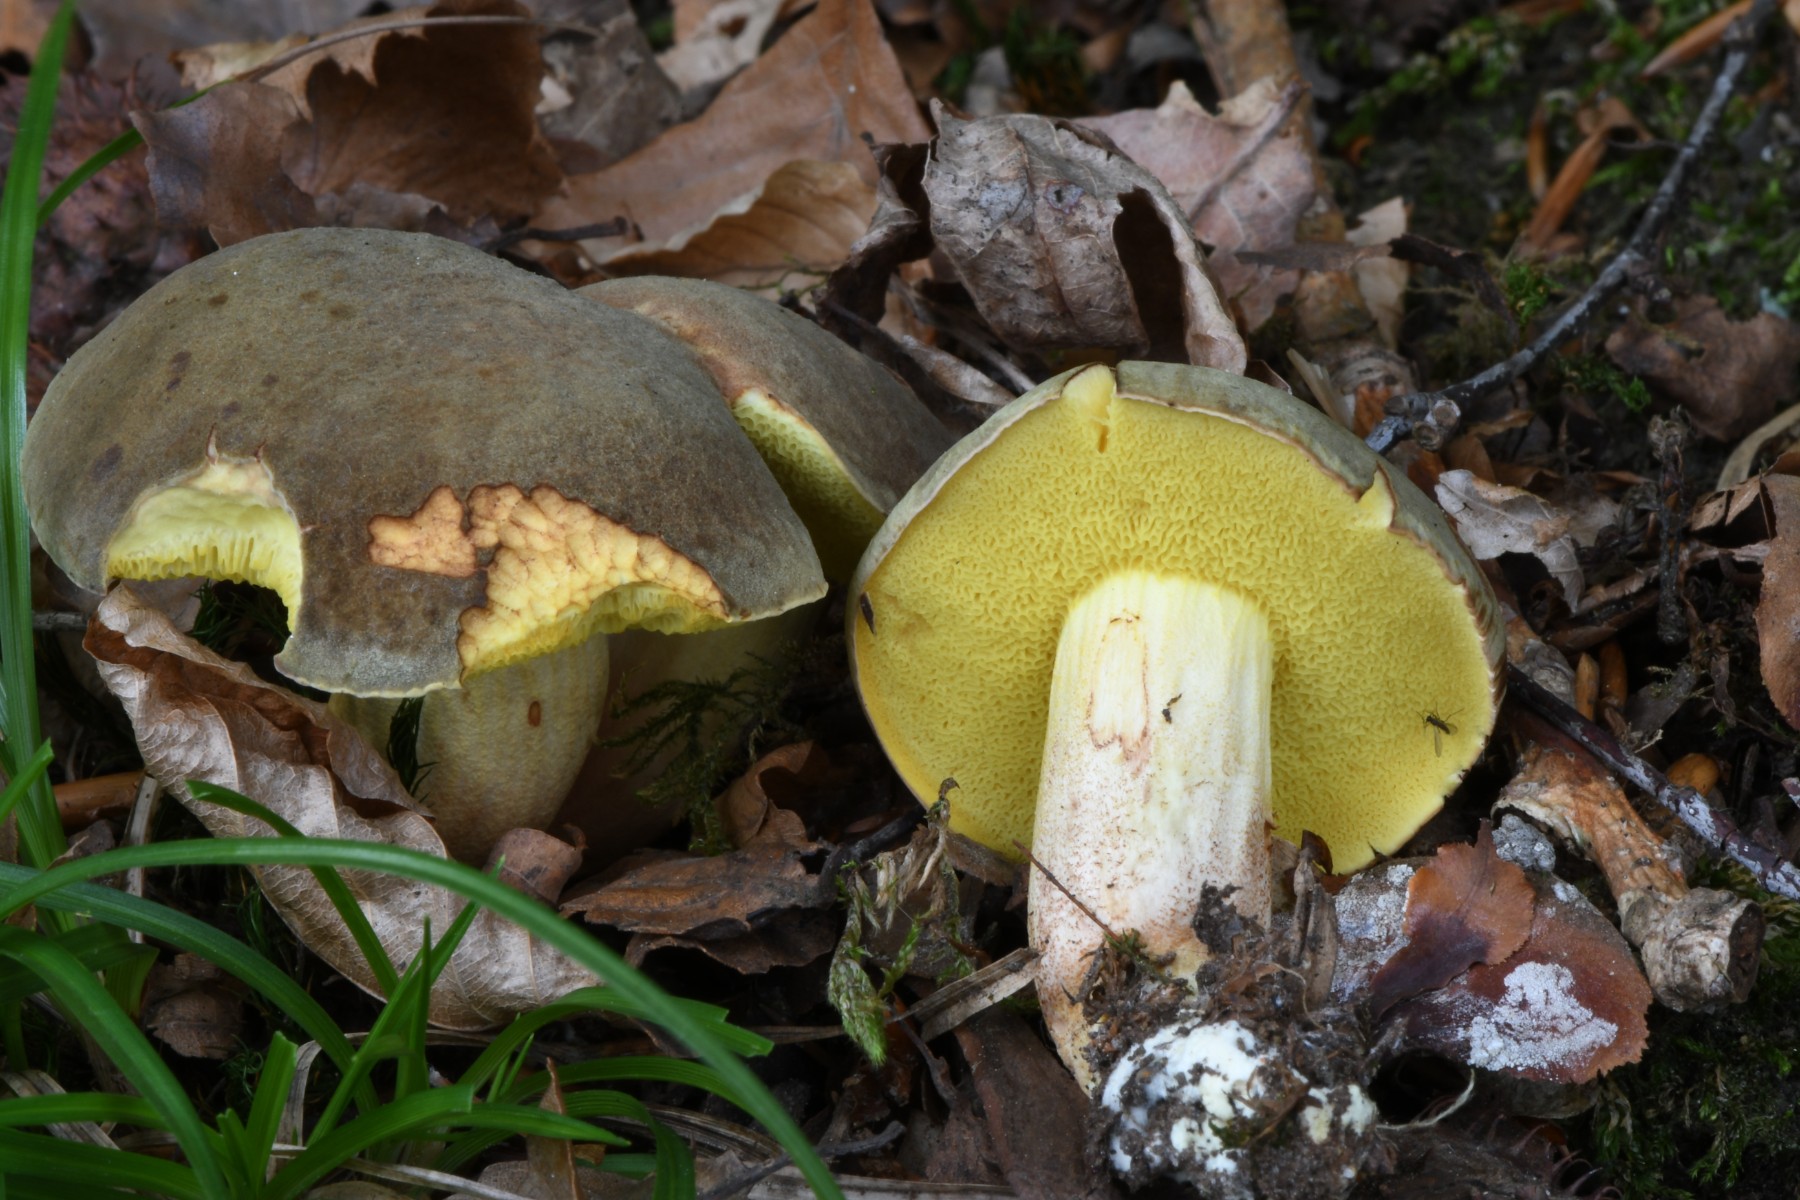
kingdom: Fungi
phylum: Basidiomycota
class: Agaricomycetes
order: Boletales
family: Boletaceae
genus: Xerocomus
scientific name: Xerocomus
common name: filtrørhat
